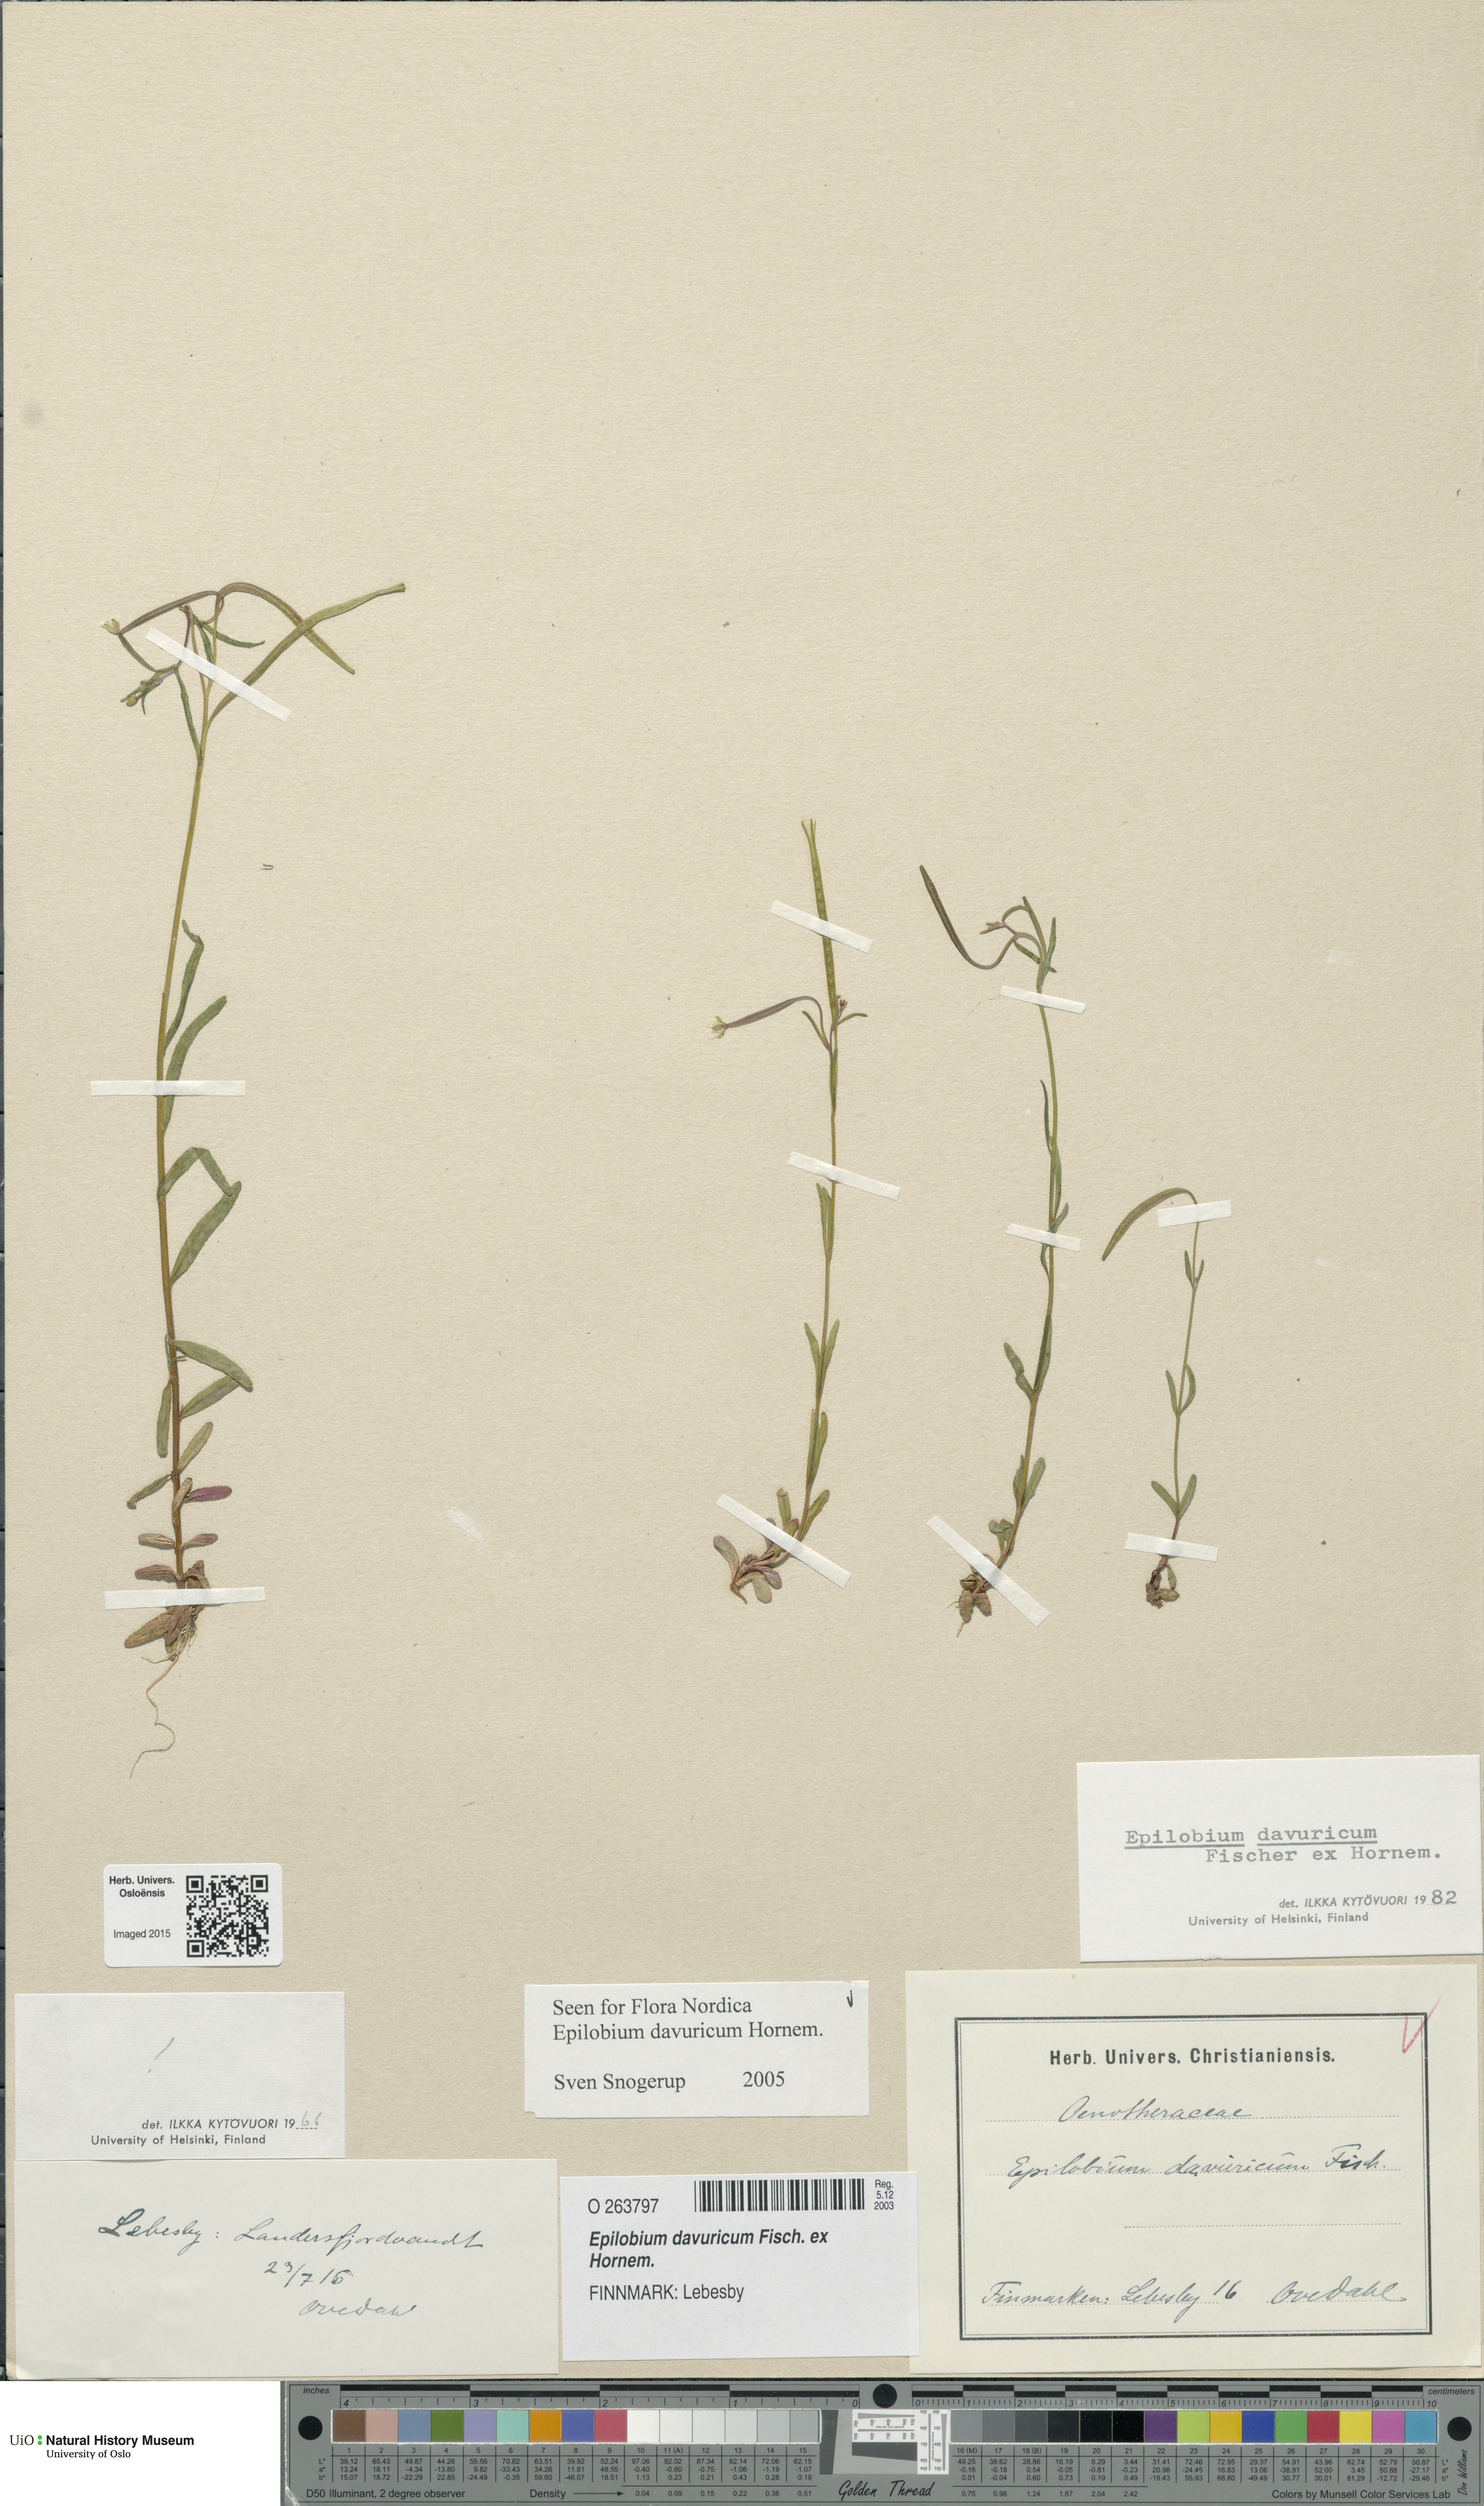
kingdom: Plantae
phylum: Tracheophyta
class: Magnoliopsida
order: Myrtales
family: Onagraceae
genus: Epilobium
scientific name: Epilobium davuricum
